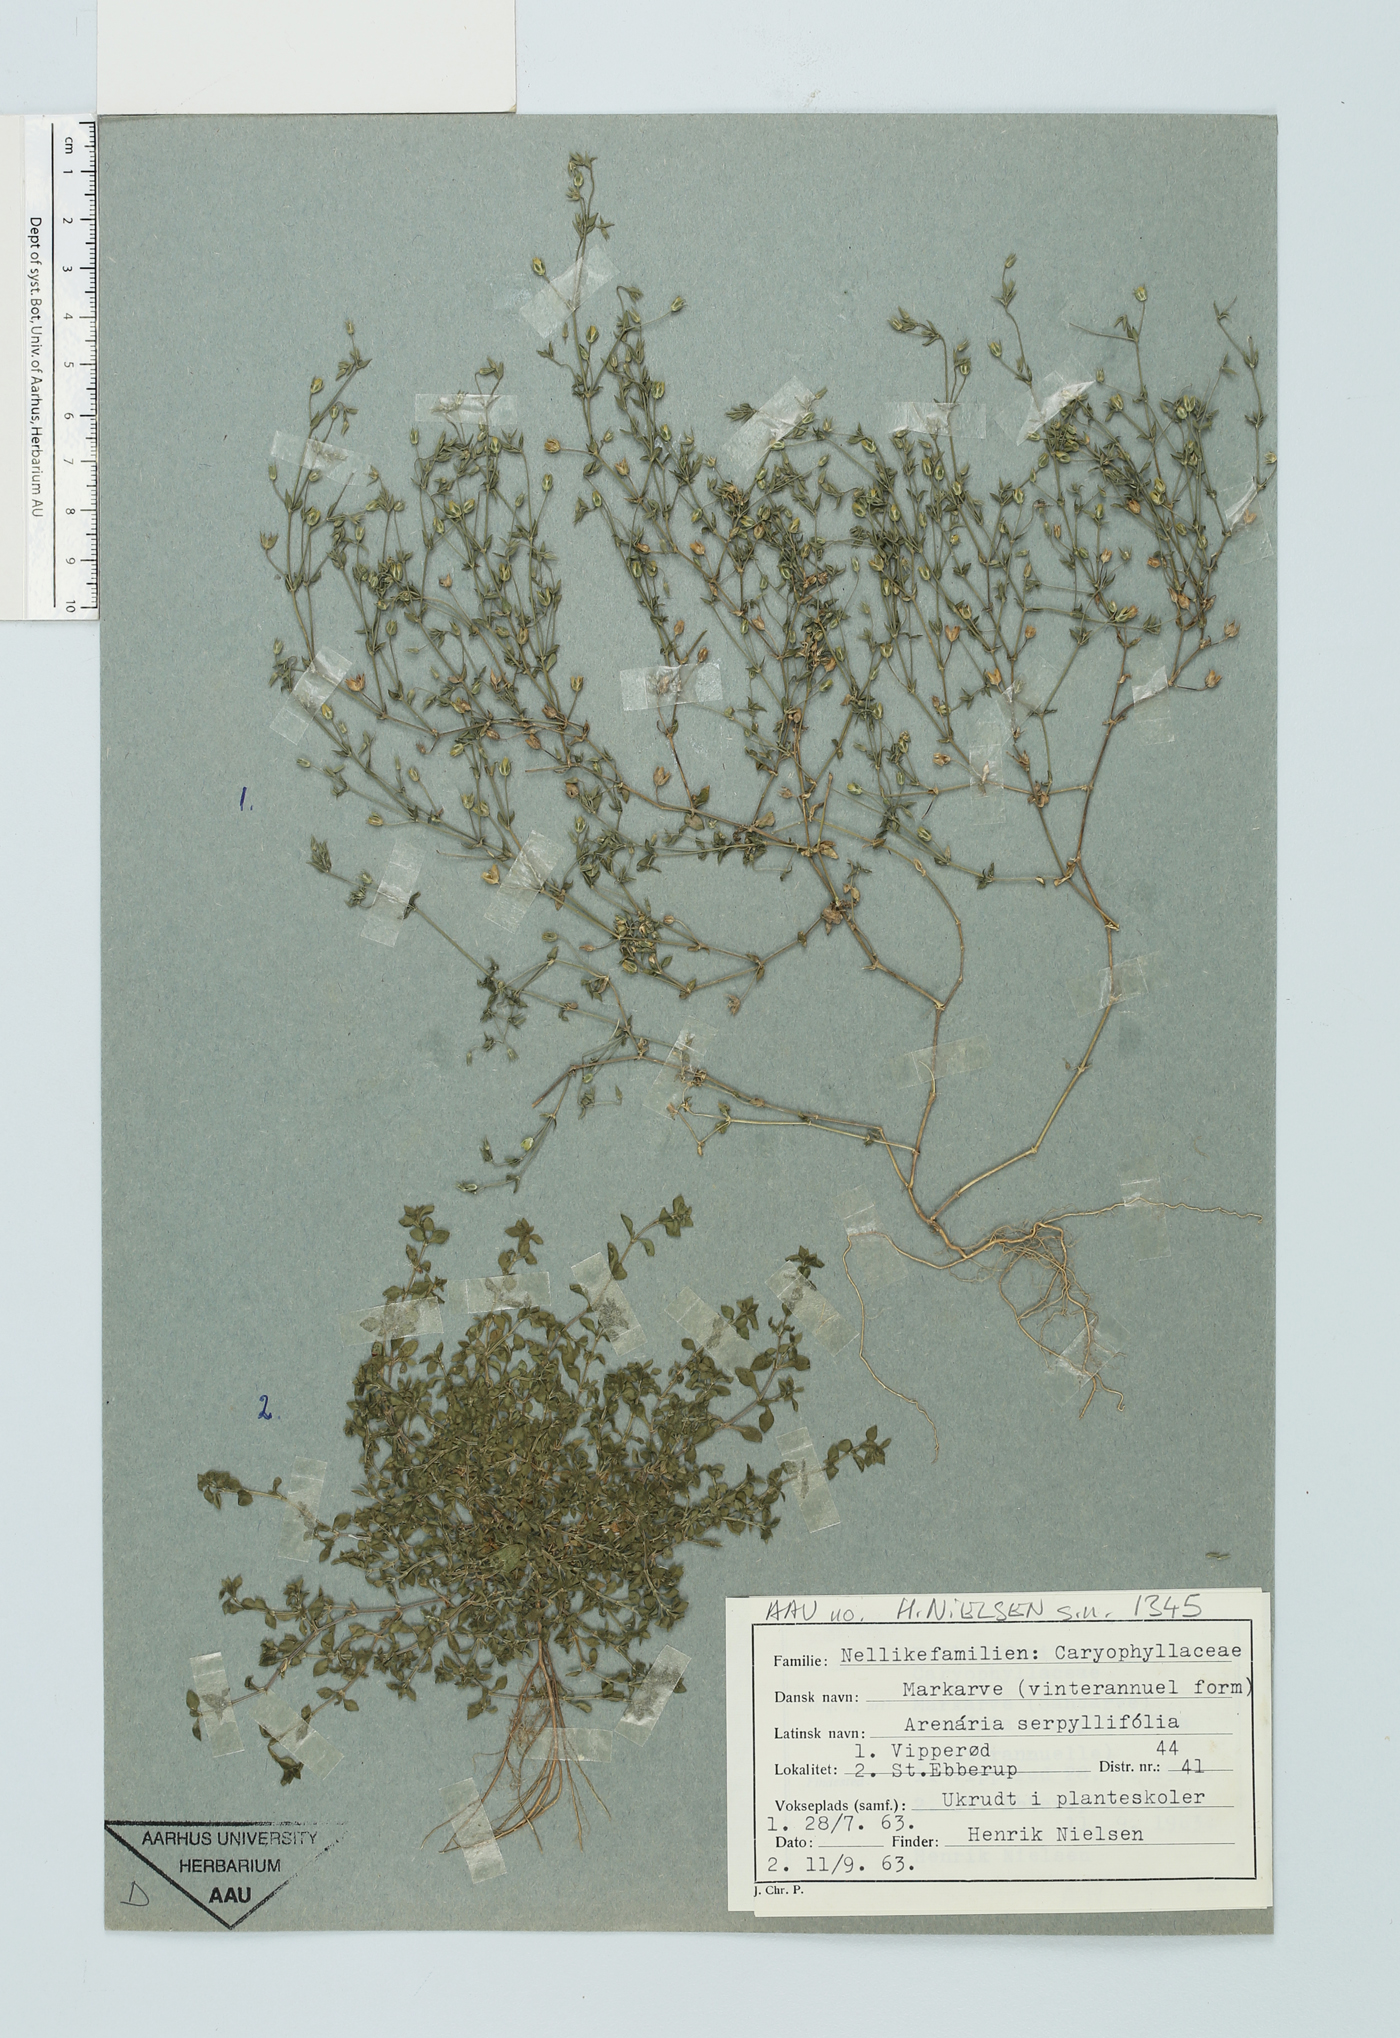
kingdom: Plantae
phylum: Tracheophyta
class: Magnoliopsida
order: Caryophyllales
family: Caryophyllaceae
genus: Arenaria
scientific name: Arenaria serpyllifolia
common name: Thyme-leaved sandwort
